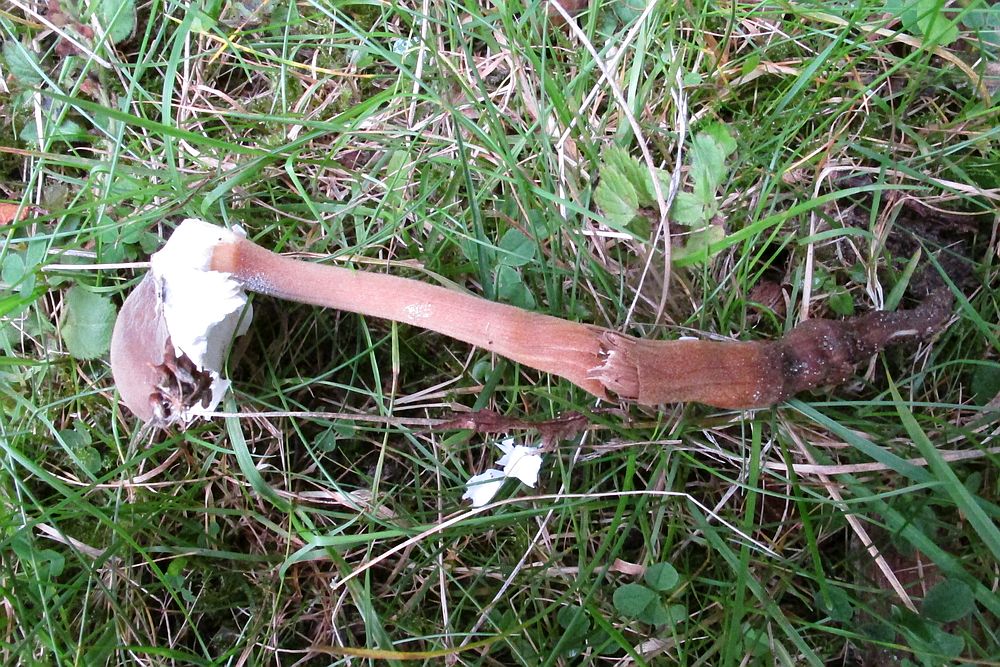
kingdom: Fungi
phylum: Basidiomycota
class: Agaricomycetes
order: Agaricales
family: Physalacriaceae
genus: Xerula
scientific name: Xerula pudens
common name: filtet pælerodshat
